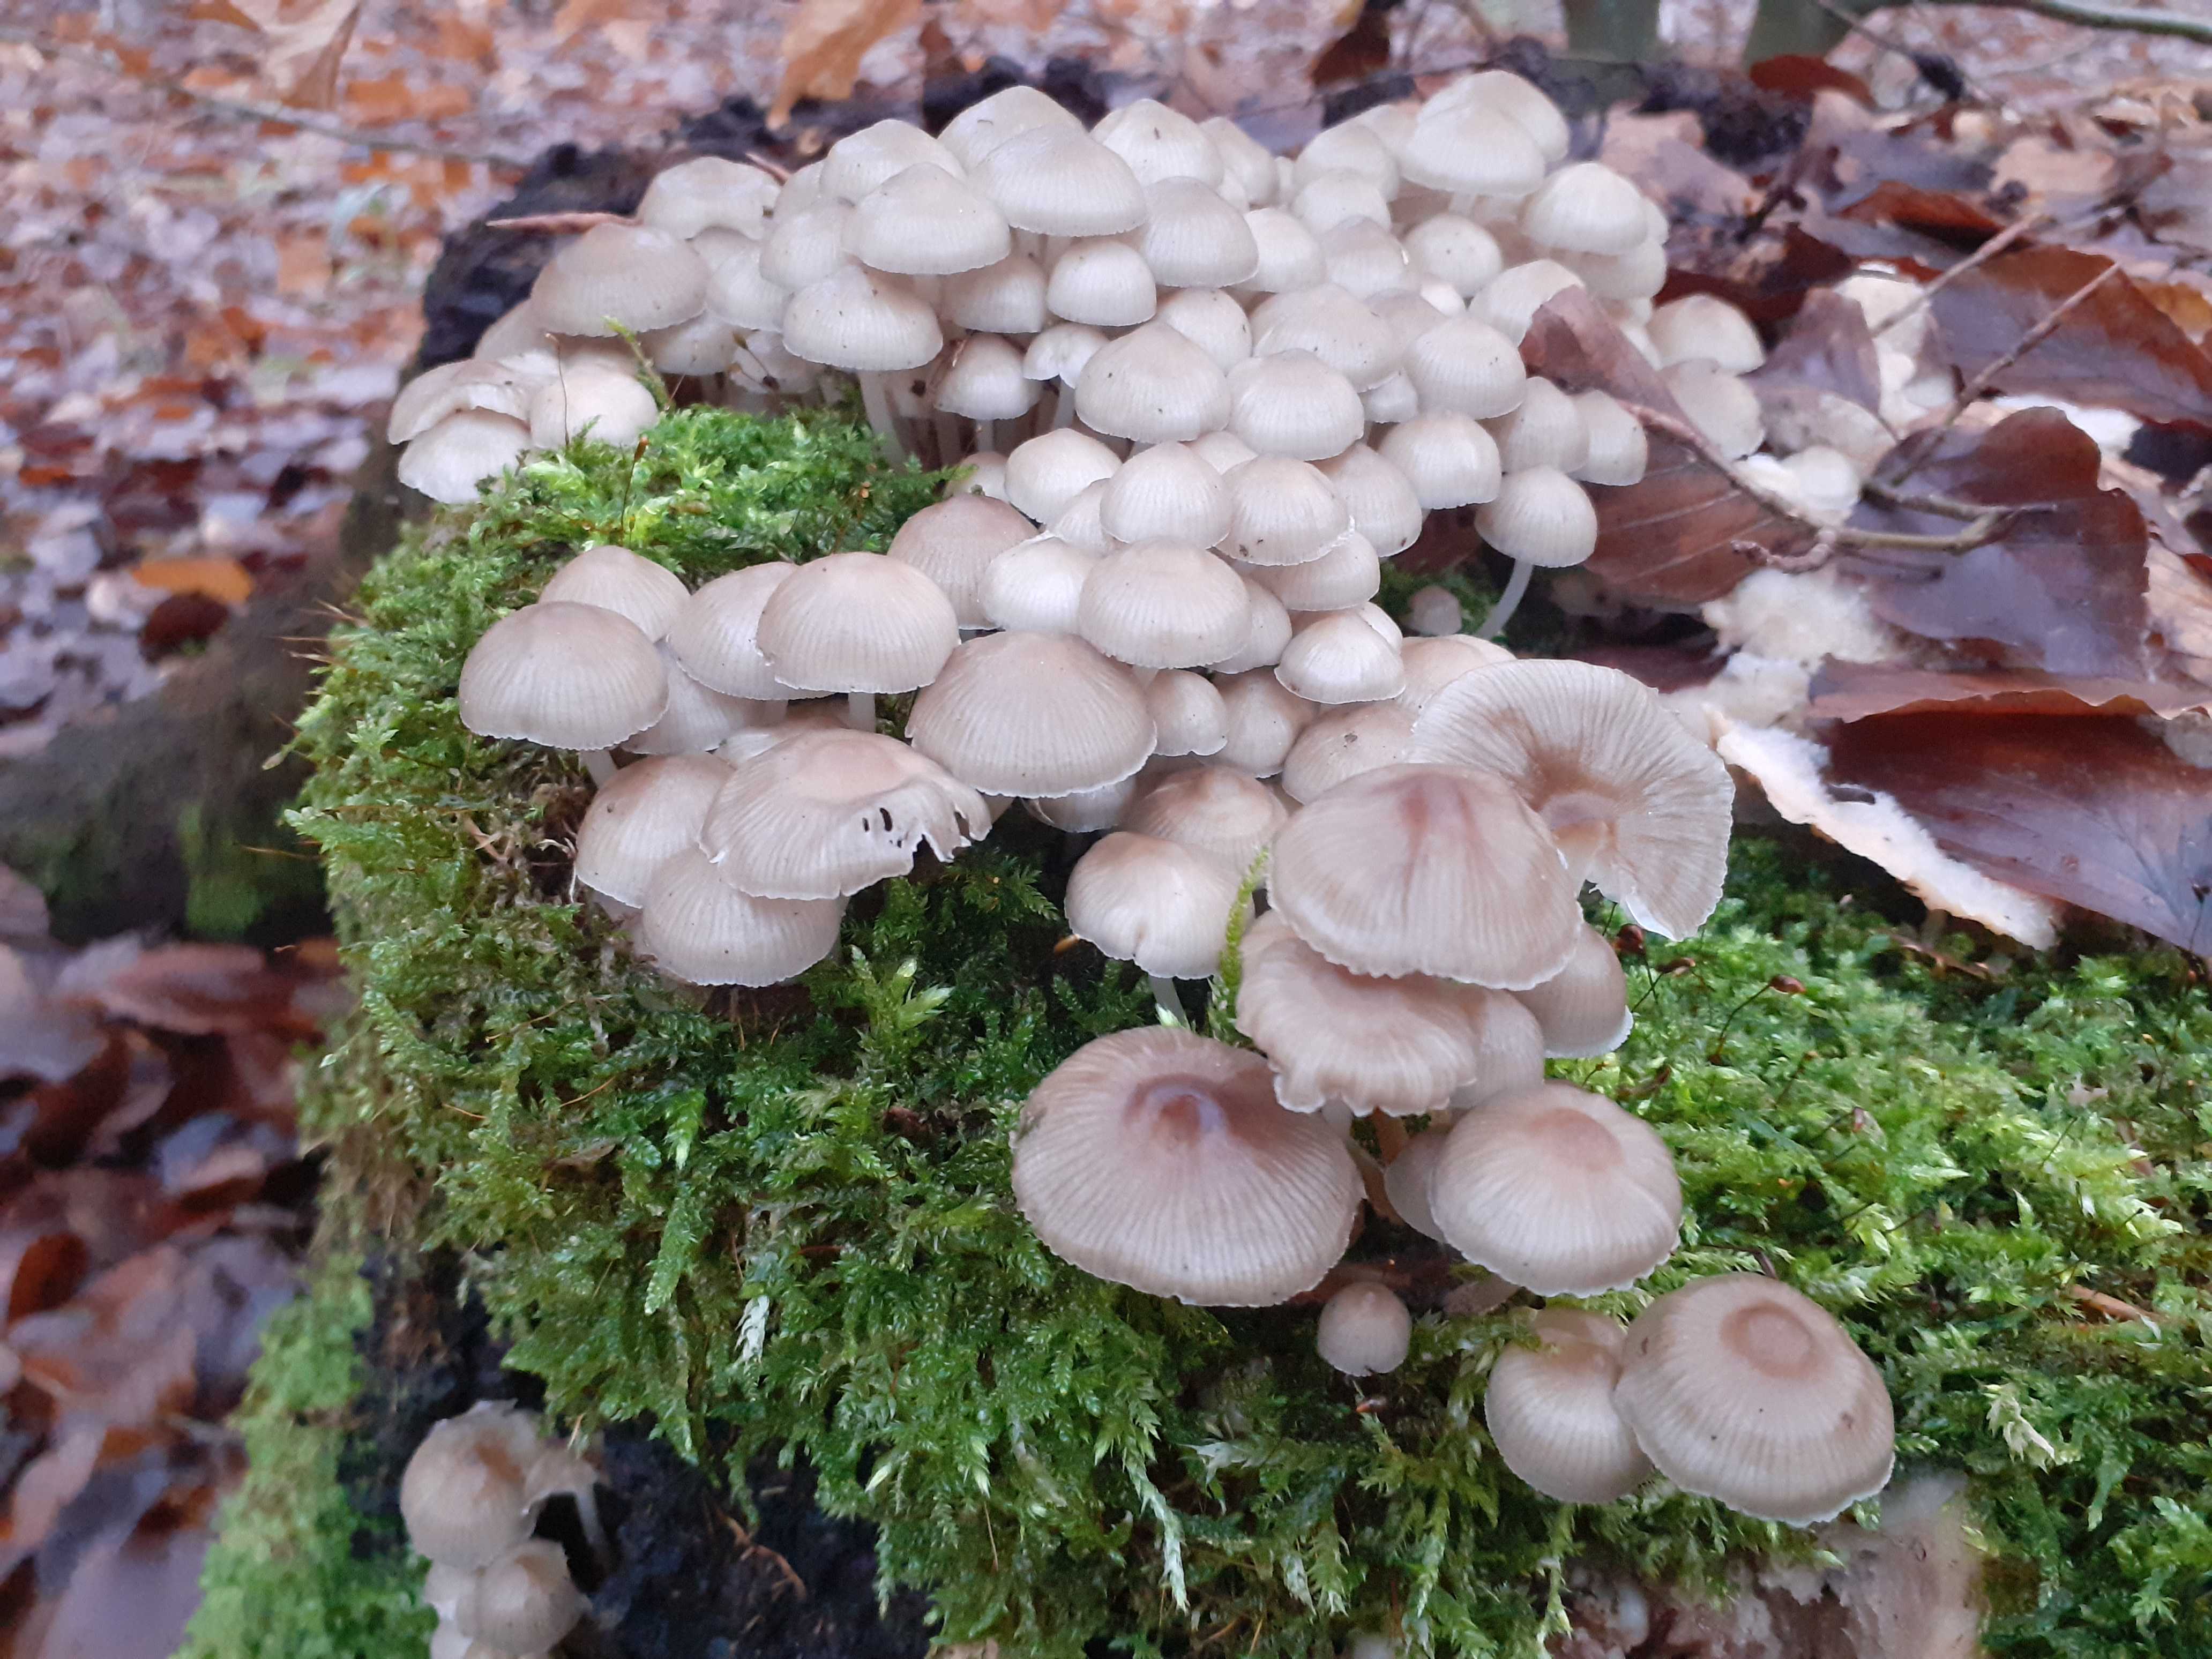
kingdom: Fungi
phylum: Basidiomycota
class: Agaricomycetes
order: Agaricales
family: Mycenaceae
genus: Mycena
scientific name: Mycena tintinnabulum
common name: vinter-huesvamp
